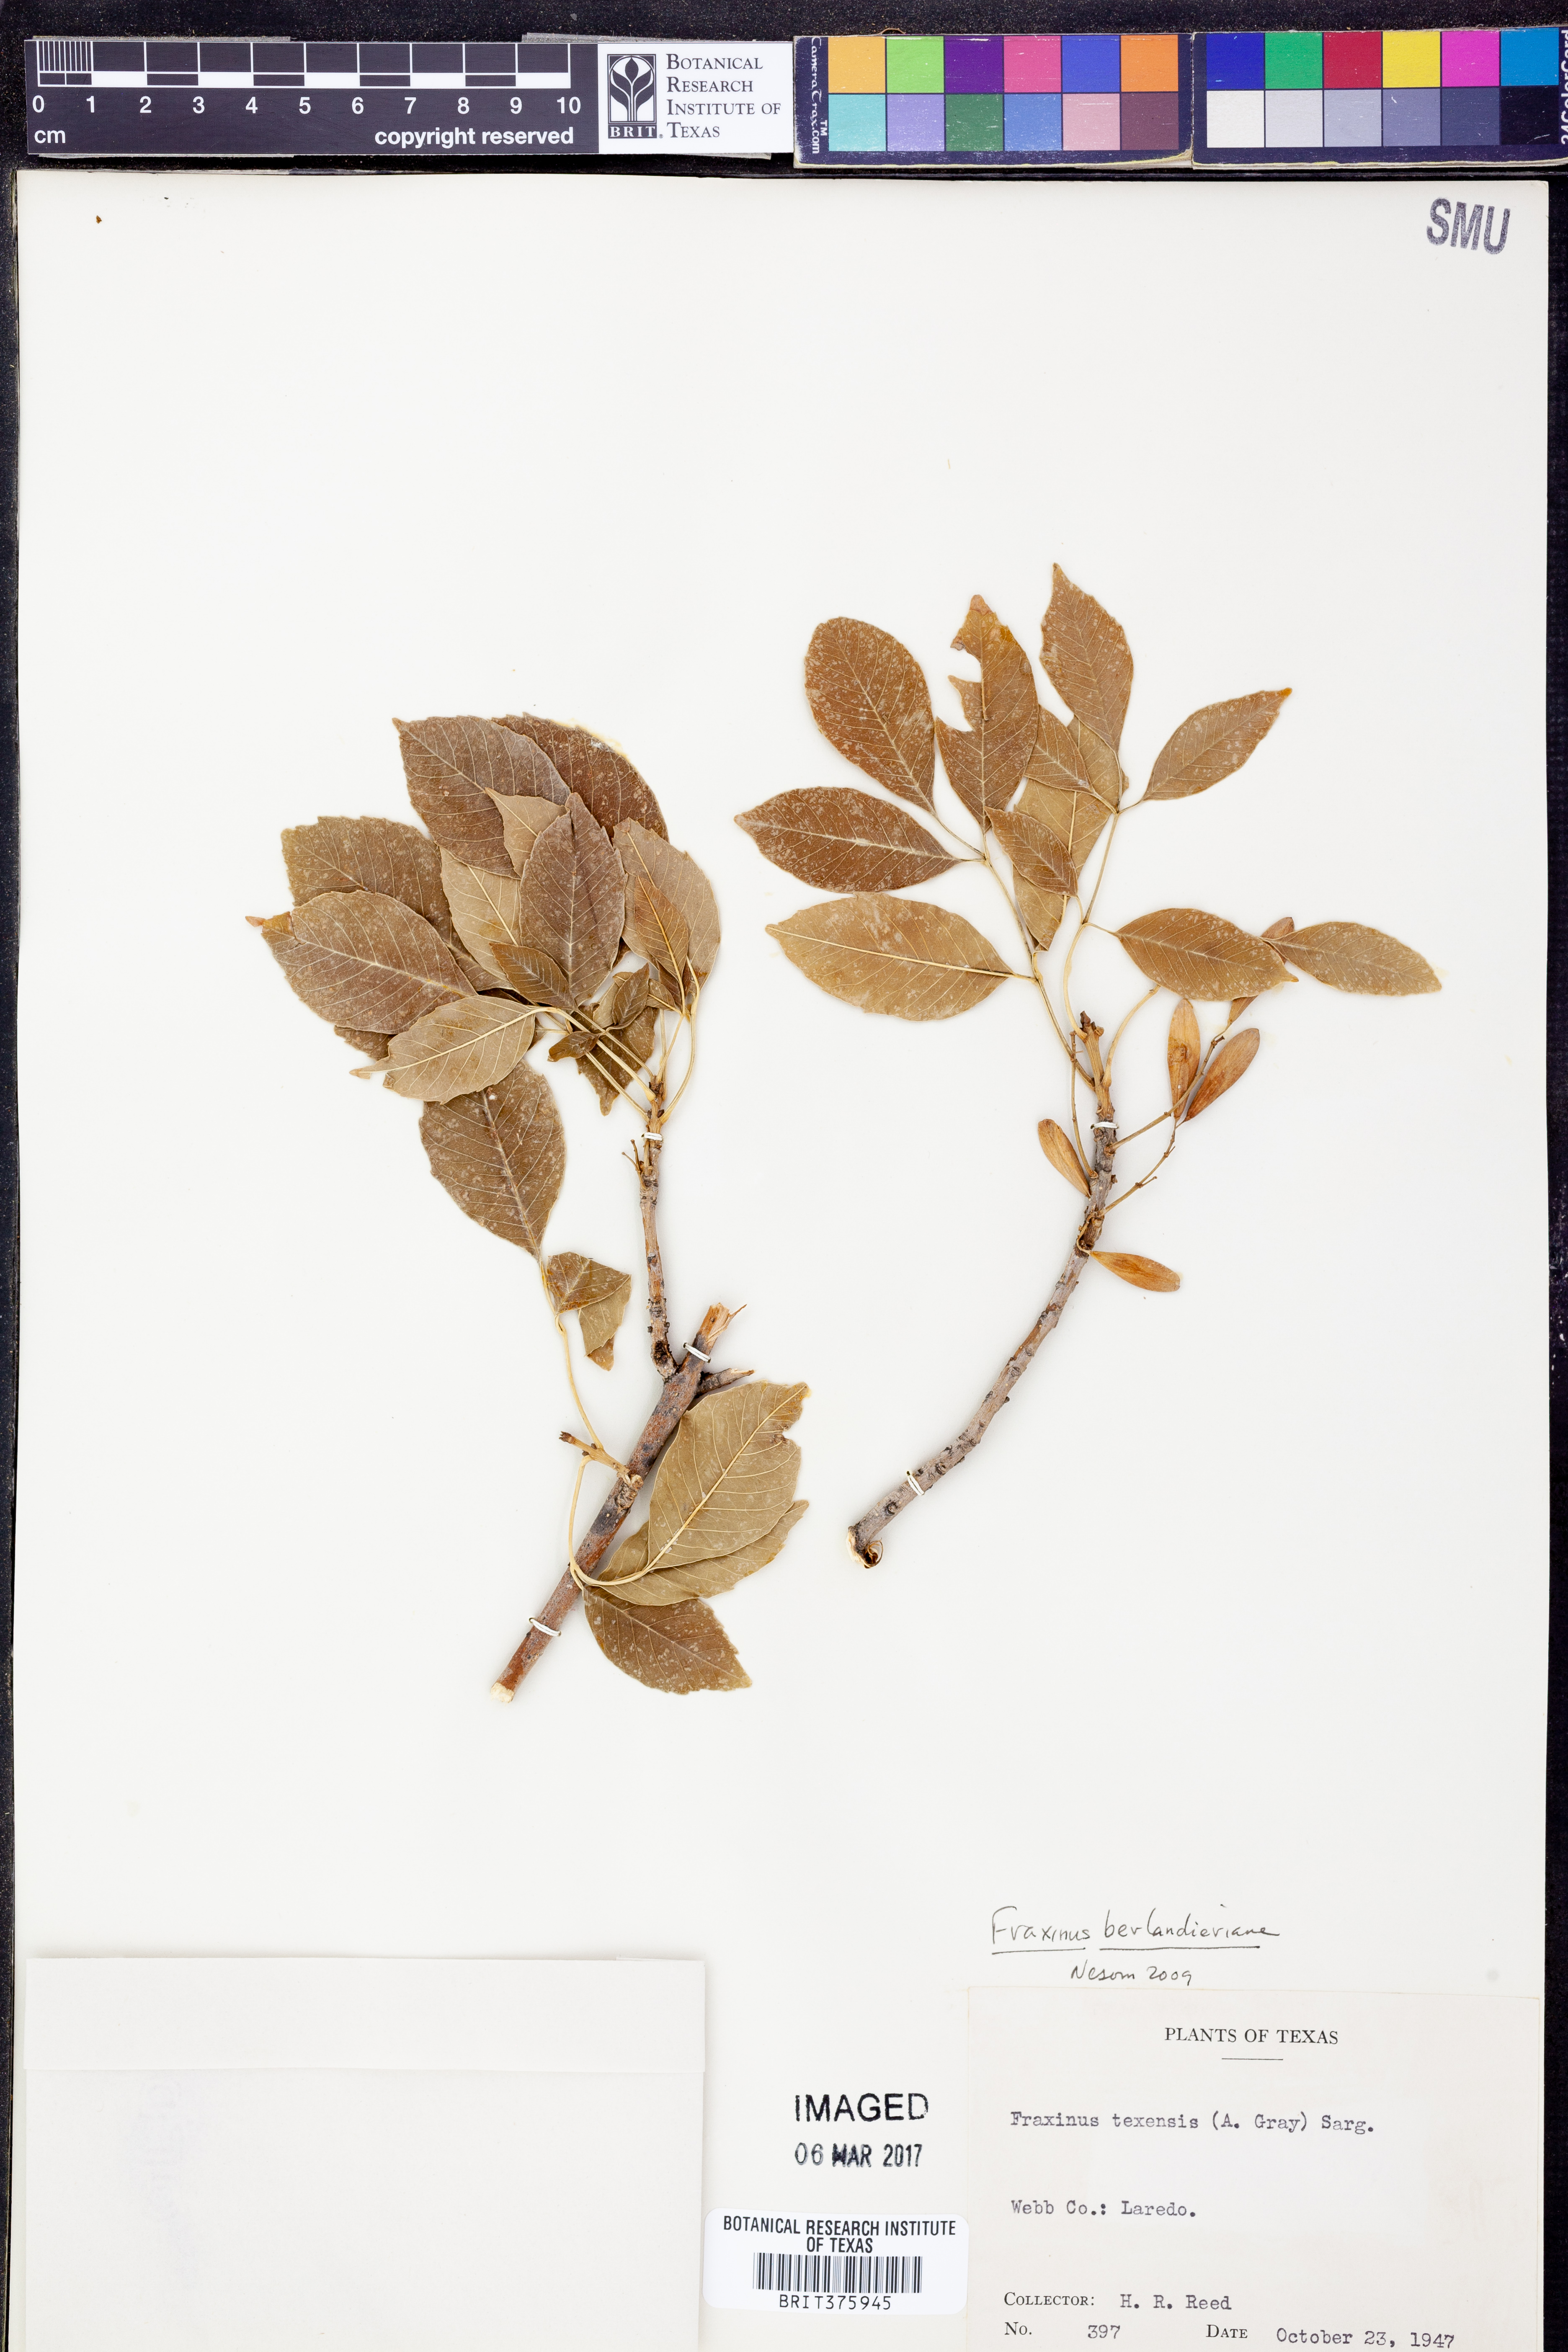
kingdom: Plantae
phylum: Tracheophyta
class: Magnoliopsida
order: Lamiales
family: Oleaceae
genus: Fraxinus
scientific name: Fraxinus berlandieriana
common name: Berlandier ash
